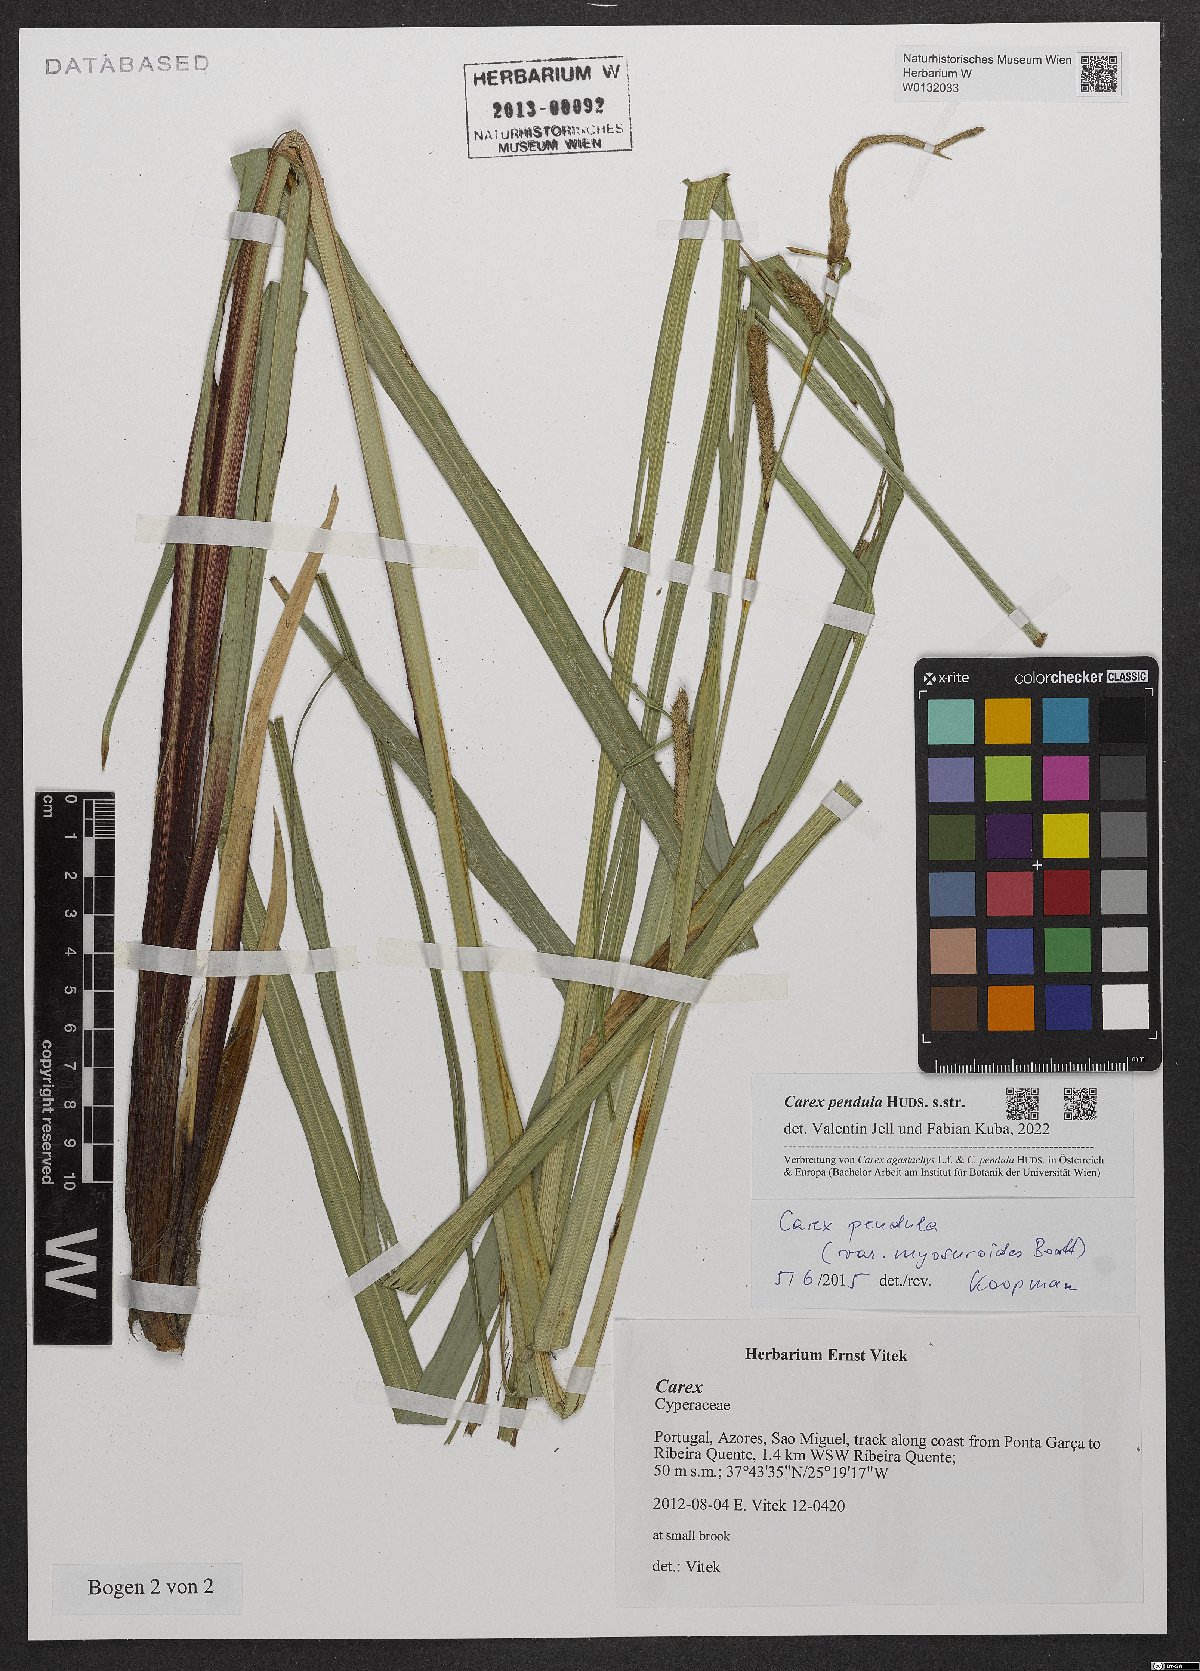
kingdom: Plantae
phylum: Tracheophyta
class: Liliopsida
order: Poales
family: Cyperaceae
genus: Carex
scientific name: Carex pendula
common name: Pendulous sedge
